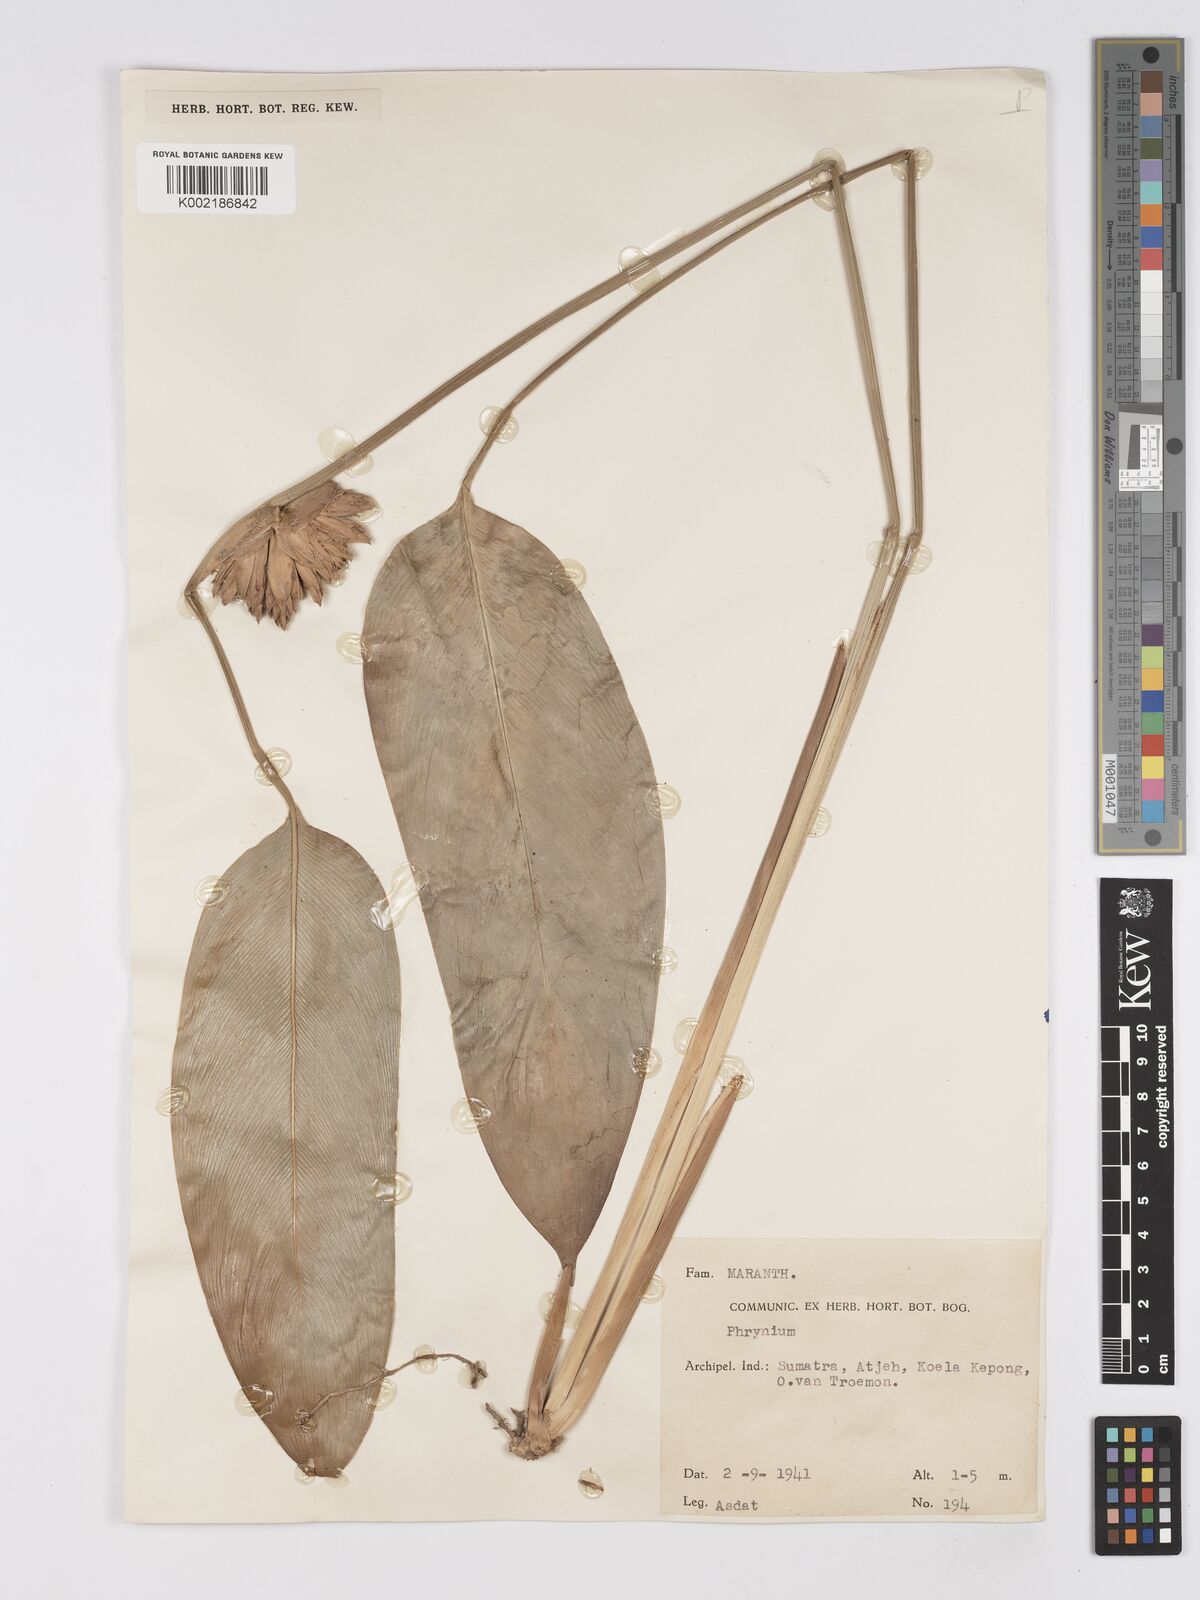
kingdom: Plantae
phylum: Tracheophyta
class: Liliopsida
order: Zingiberales
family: Marantaceae
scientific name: Marantaceae
